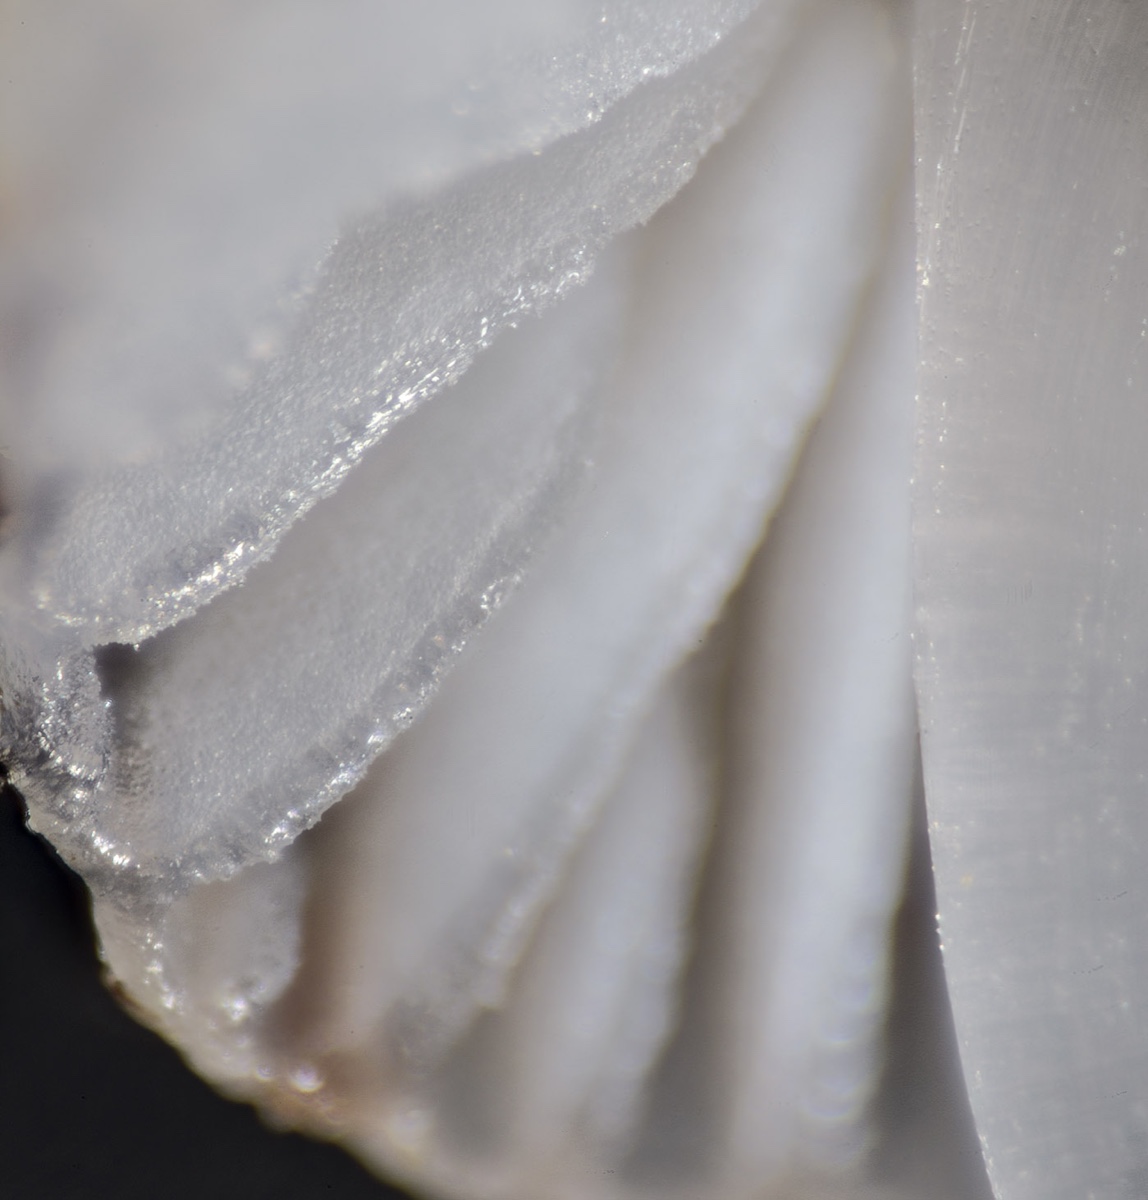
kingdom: Fungi
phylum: Basidiomycota
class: Agaricomycetes
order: Agaricales
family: Mycenaceae
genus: Mycena
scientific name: Mycena bulbosa
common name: siv-huesvamp
